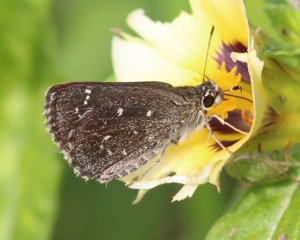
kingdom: Animalia
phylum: Arthropoda
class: Insecta
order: Lepidoptera
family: Hesperiidae
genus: Mastor
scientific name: Mastor celia
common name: Celia's Roadside-Skipper
